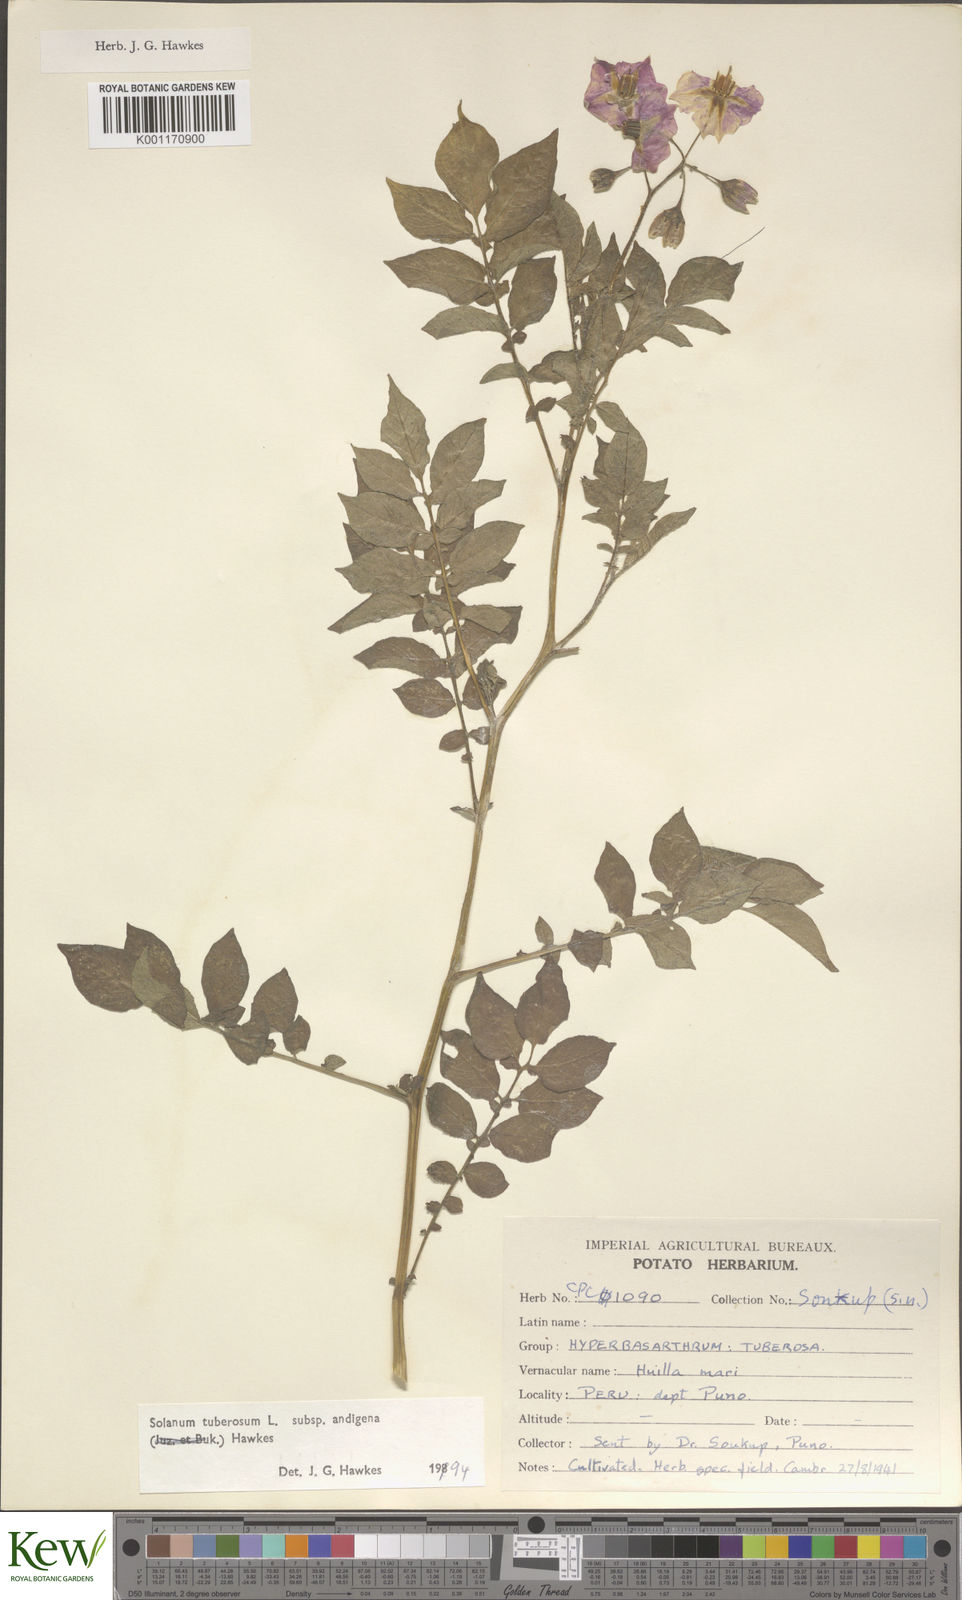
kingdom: Plantae
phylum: Tracheophyta
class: Magnoliopsida
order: Solanales
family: Solanaceae
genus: Solanum
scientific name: Solanum tuberosum
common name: Potato
